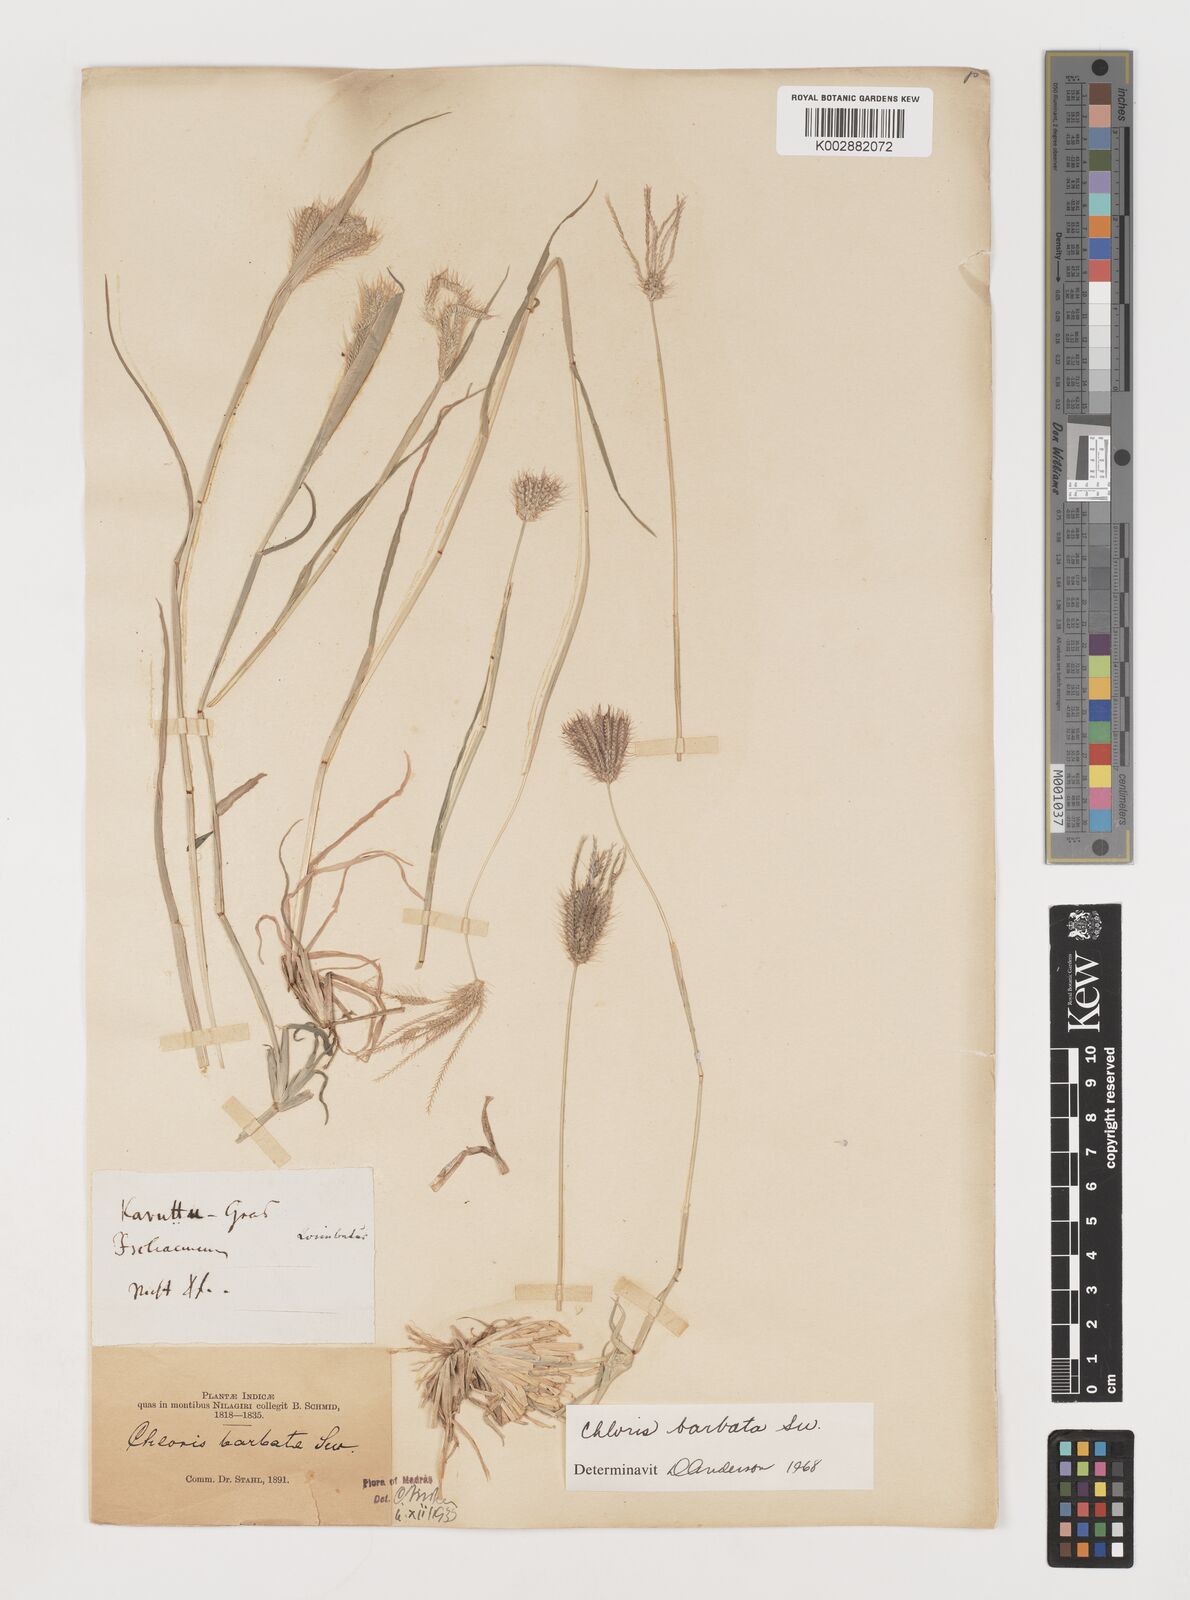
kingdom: Plantae
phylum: Tracheophyta
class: Liliopsida
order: Poales
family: Poaceae
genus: Chloris
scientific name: Chloris barbata
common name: Swollen fingergrass
